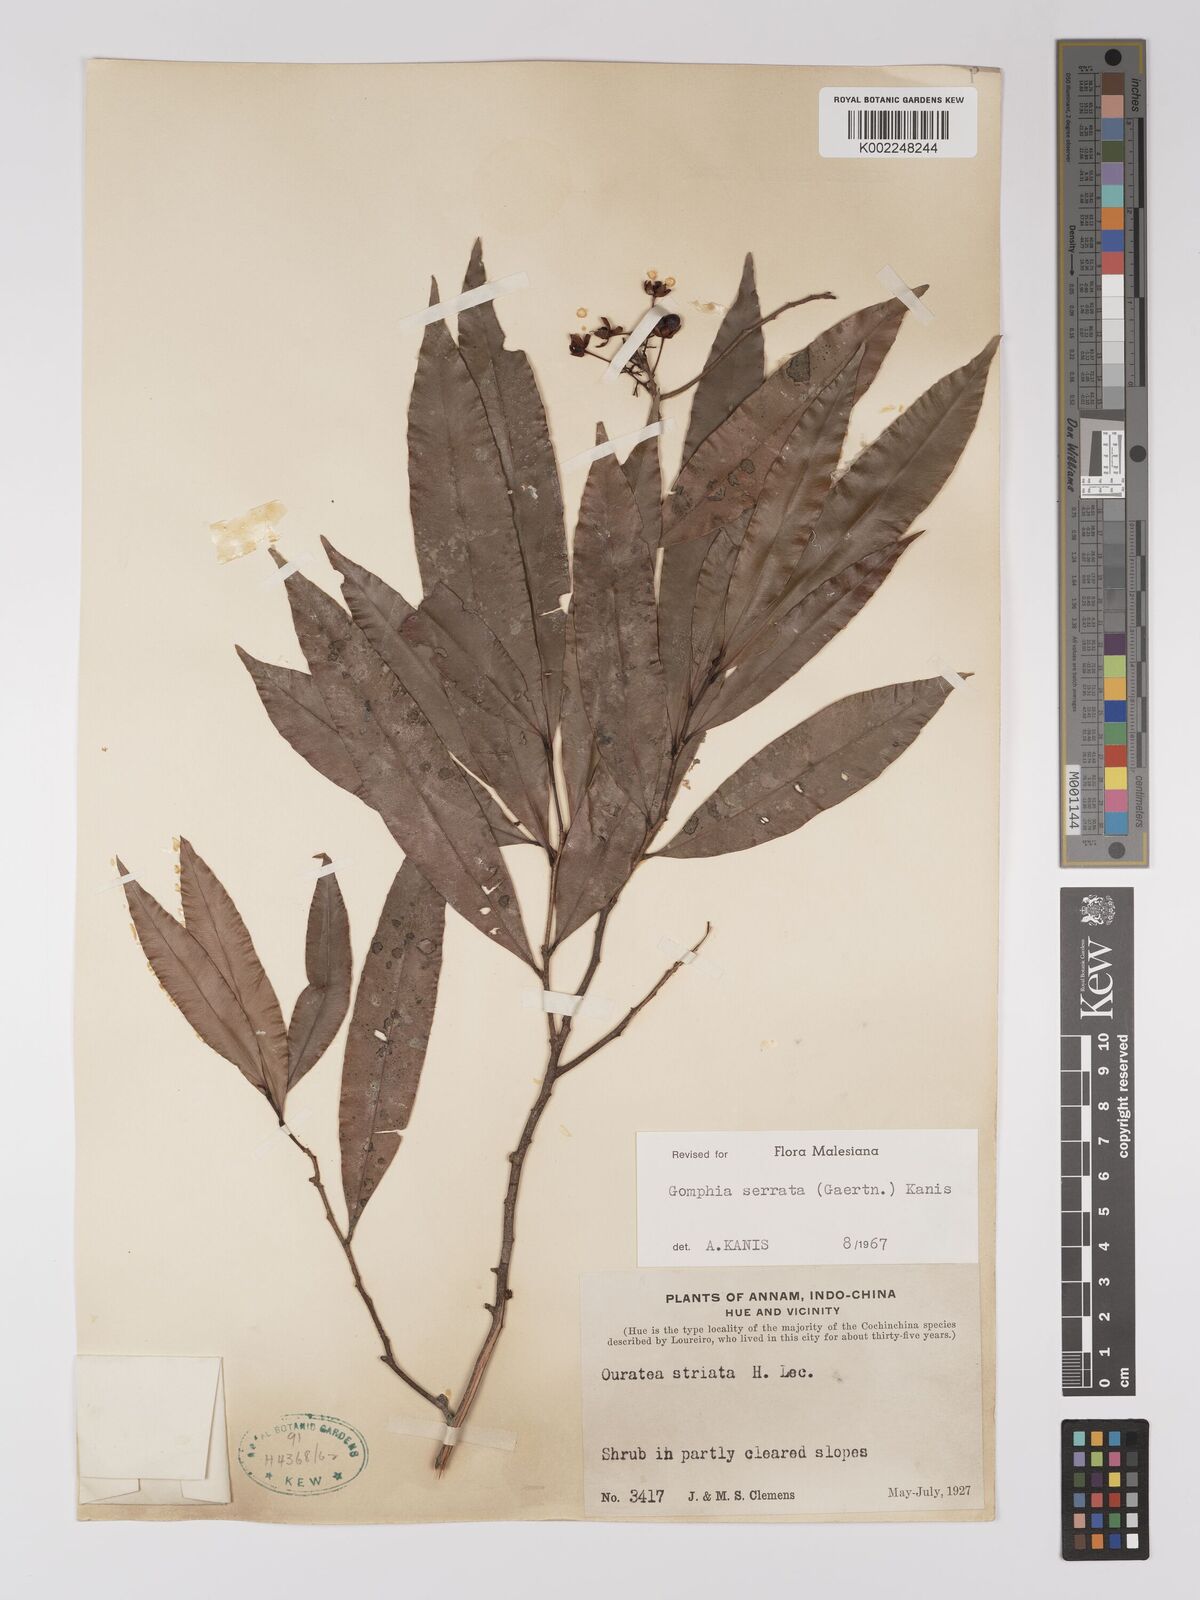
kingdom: Plantae
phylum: Tracheophyta
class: Magnoliopsida
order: Malpighiales
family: Ochnaceae
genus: Gomphia
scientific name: Gomphia serrata
